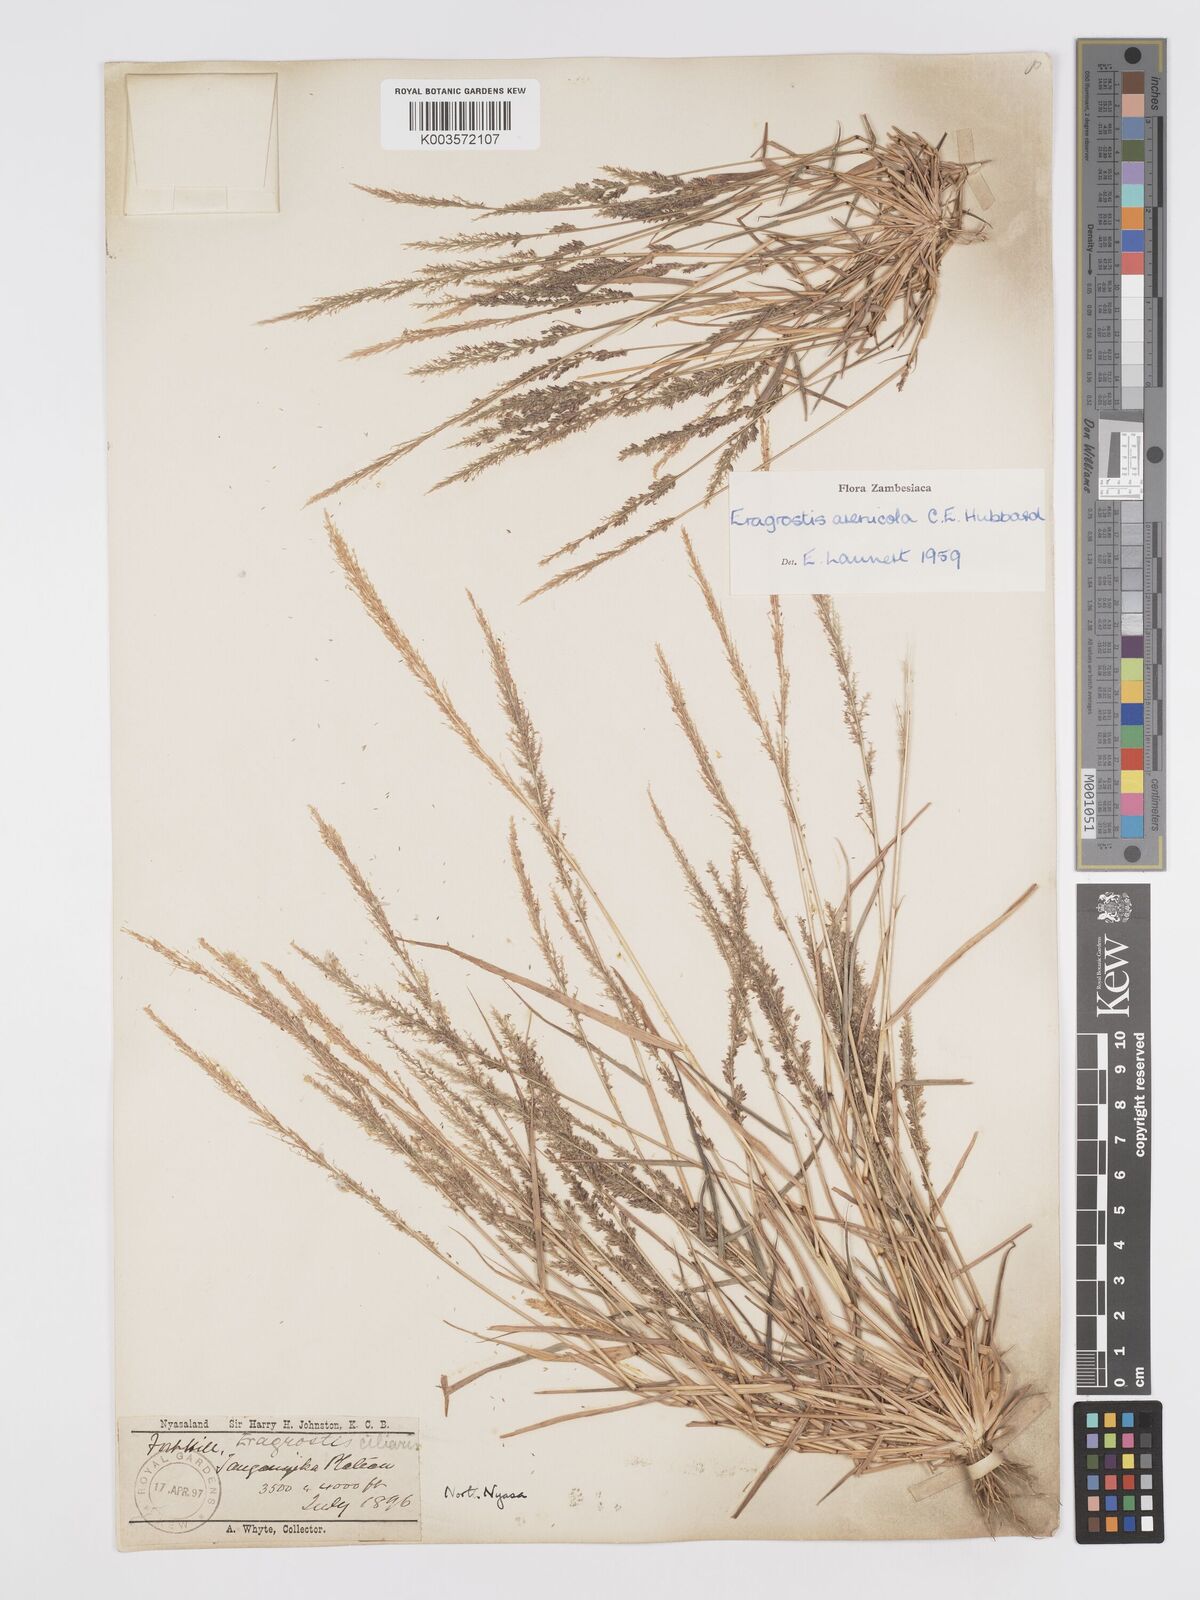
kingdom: Plantae
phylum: Tracheophyta
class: Liliopsida
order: Poales
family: Poaceae
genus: Eragrostis
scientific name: Eragrostis arenicola
